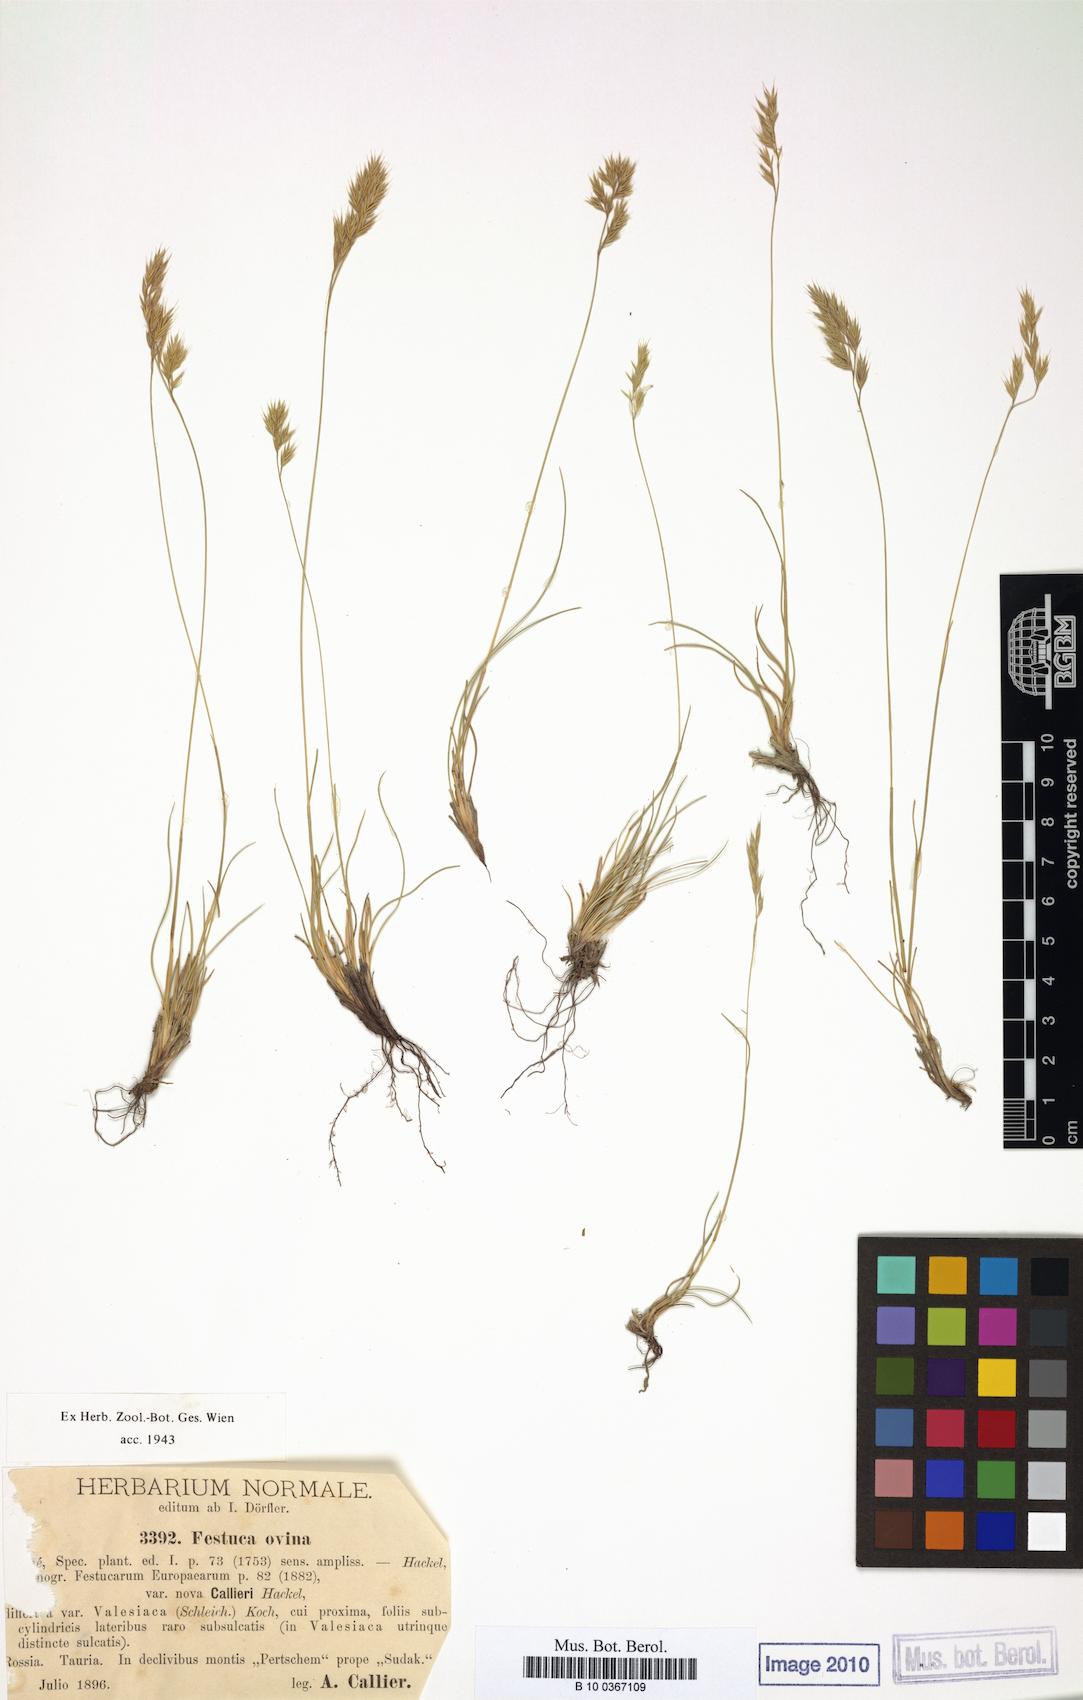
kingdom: Plantae
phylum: Tracheophyta
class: Liliopsida
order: Poales
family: Poaceae
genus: Festuca
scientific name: Festuca callieri
